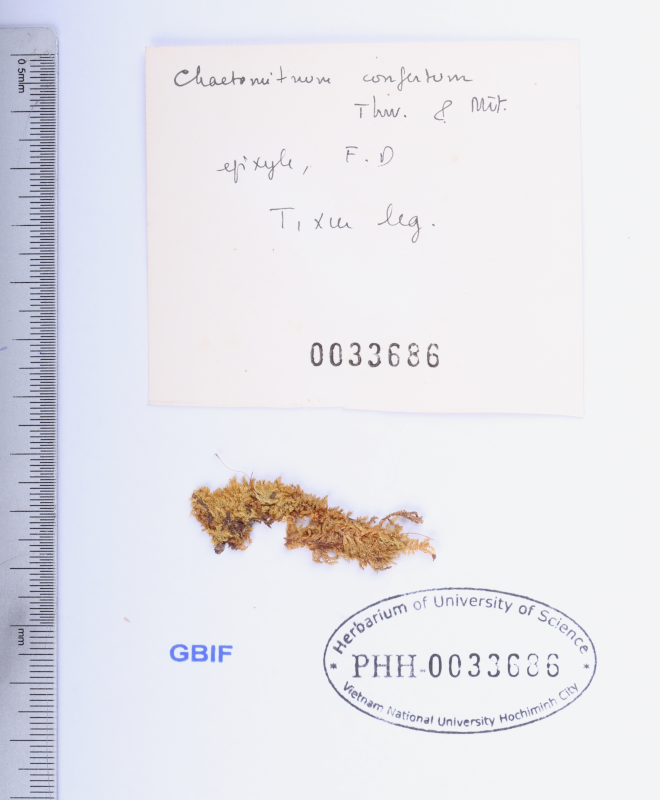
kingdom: Plantae
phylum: Bryophyta
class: Bryopsida
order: Hypnales
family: Symphyodontaceae
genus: Chaetomitrium
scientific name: Chaetomitrium confertum
